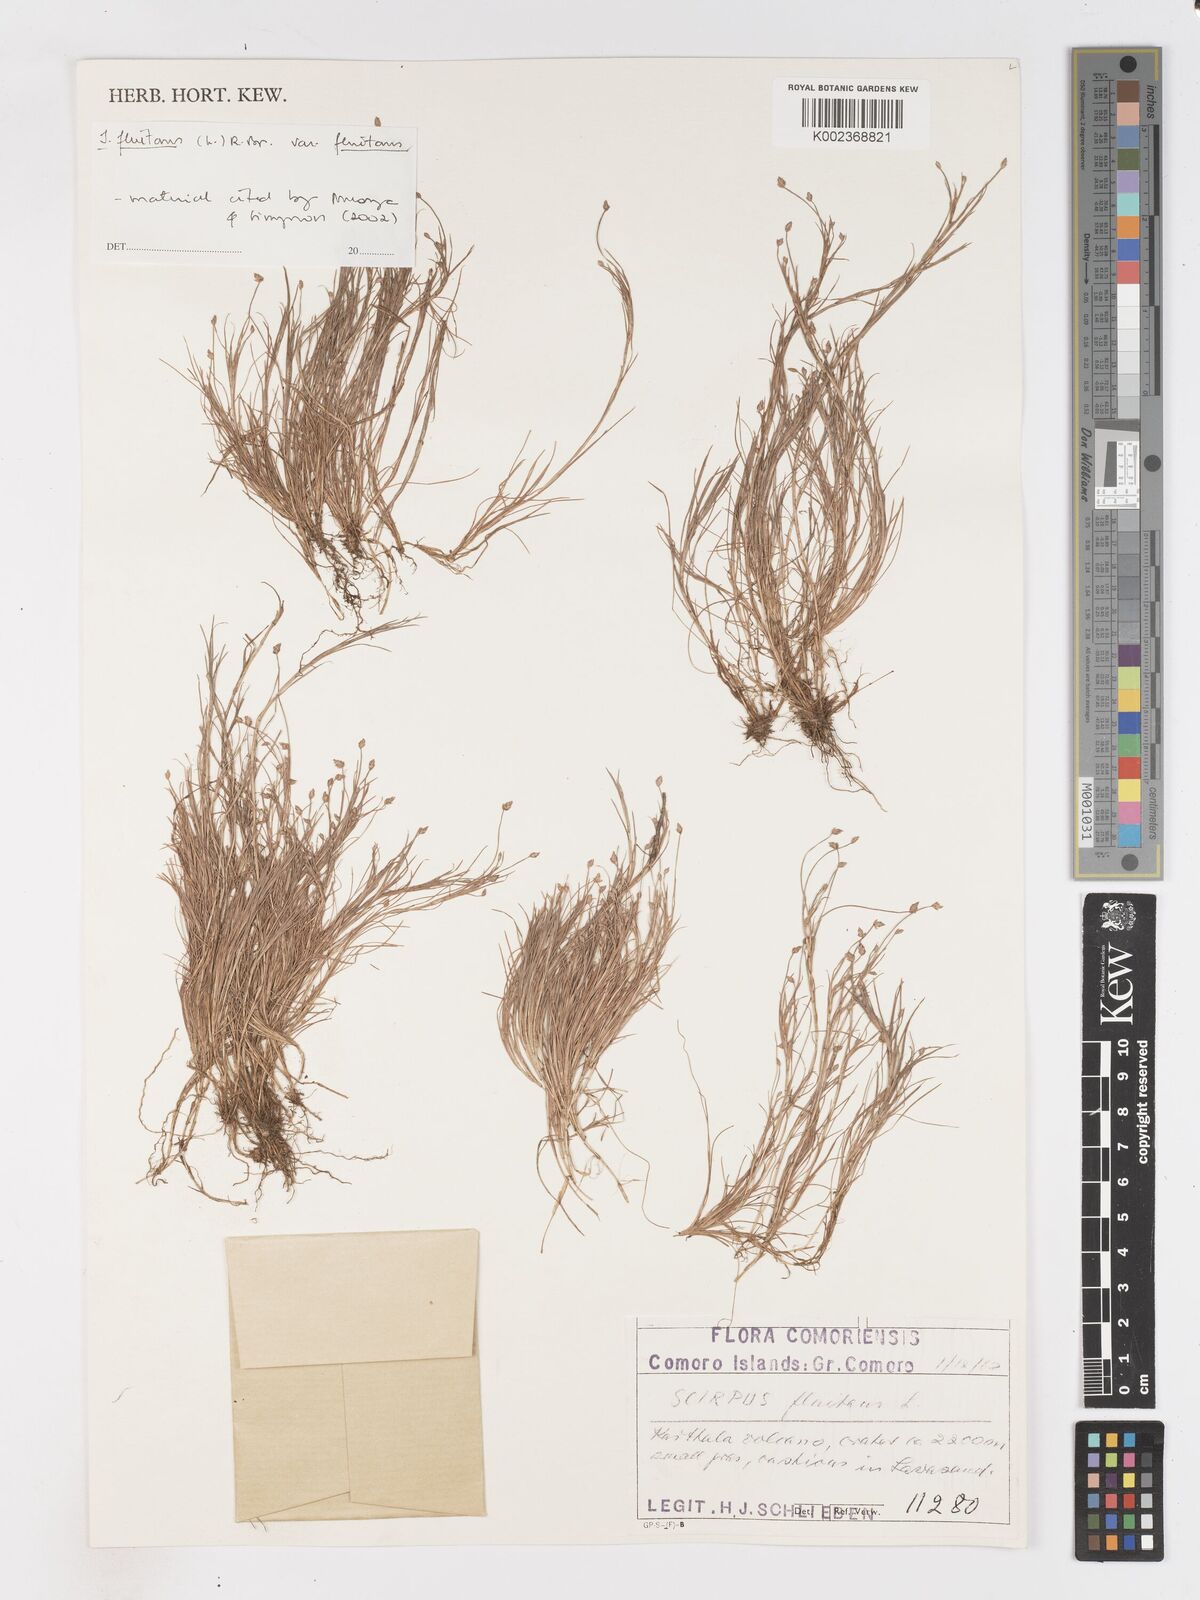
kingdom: Plantae
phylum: Tracheophyta
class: Liliopsida
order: Poales
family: Cyperaceae
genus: Isolepis
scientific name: Isolepis fluitans
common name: Floating club-rush
